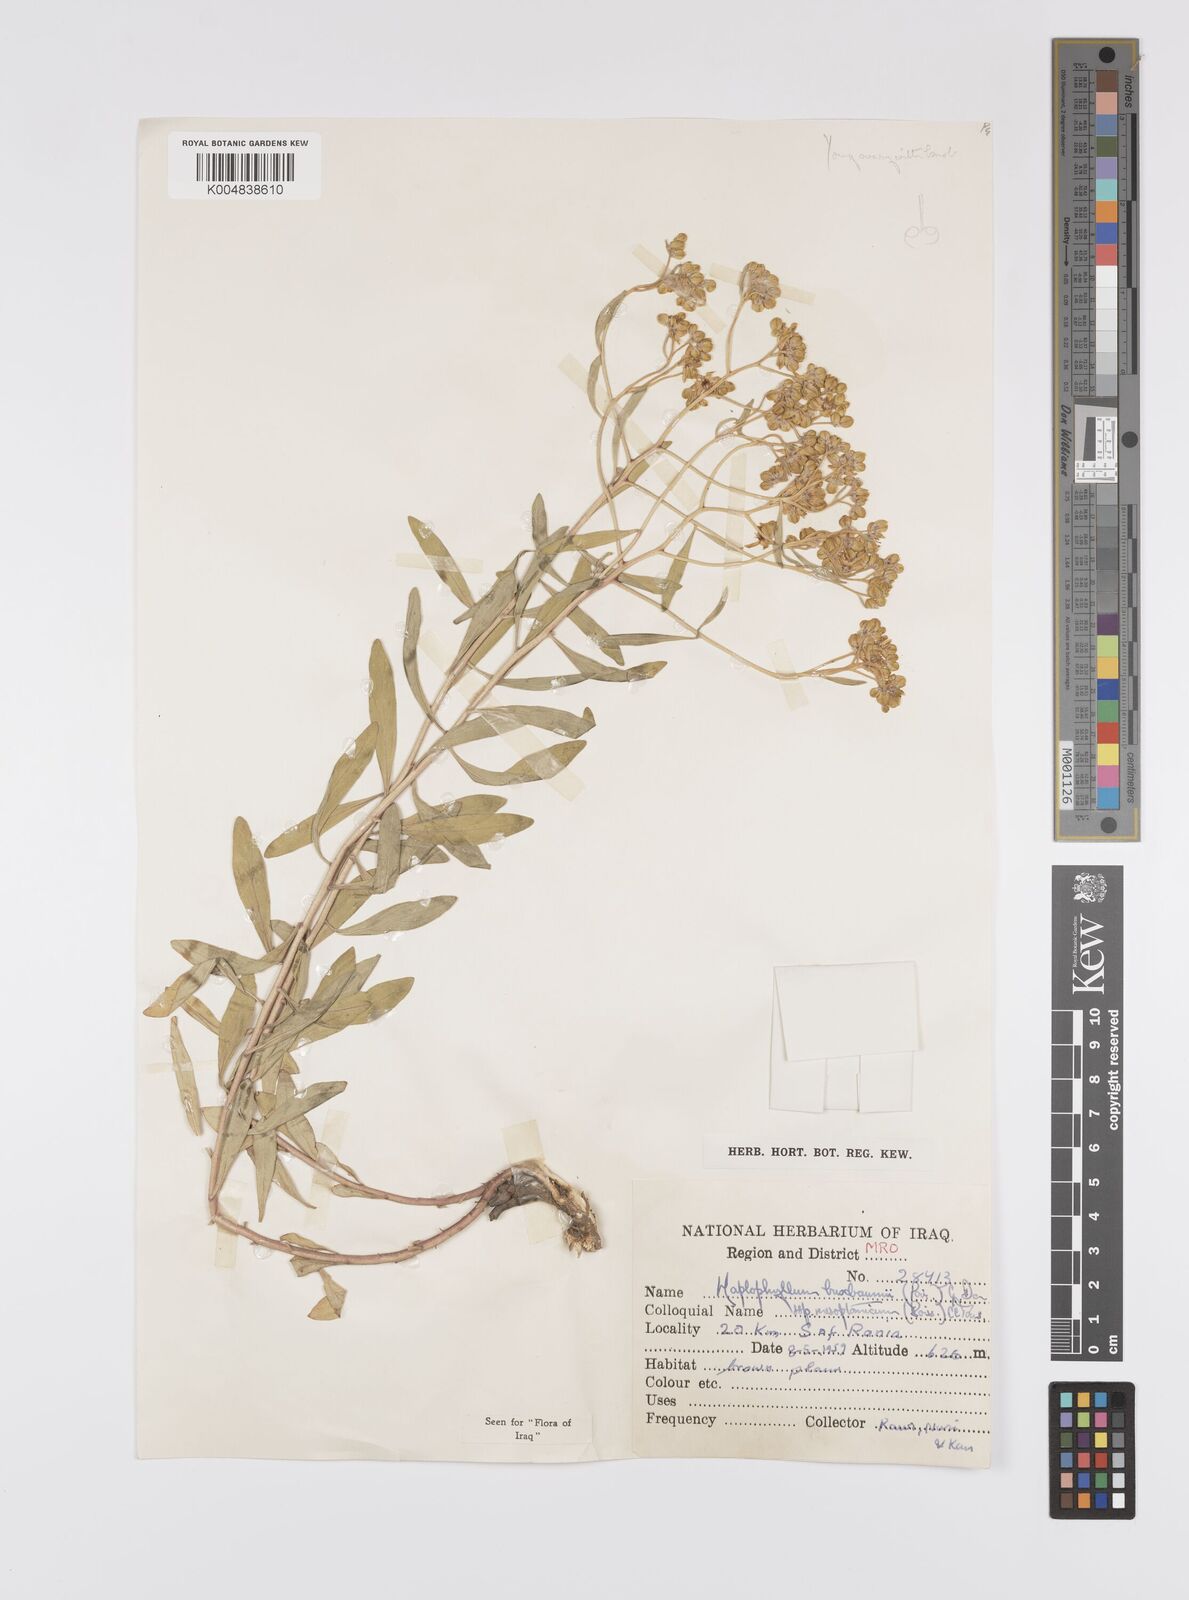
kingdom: Plantae
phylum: Tracheophyta
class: Magnoliopsida
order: Sapindales
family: Rutaceae
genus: Haplophyllum
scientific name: Haplophyllum buxbaumii
